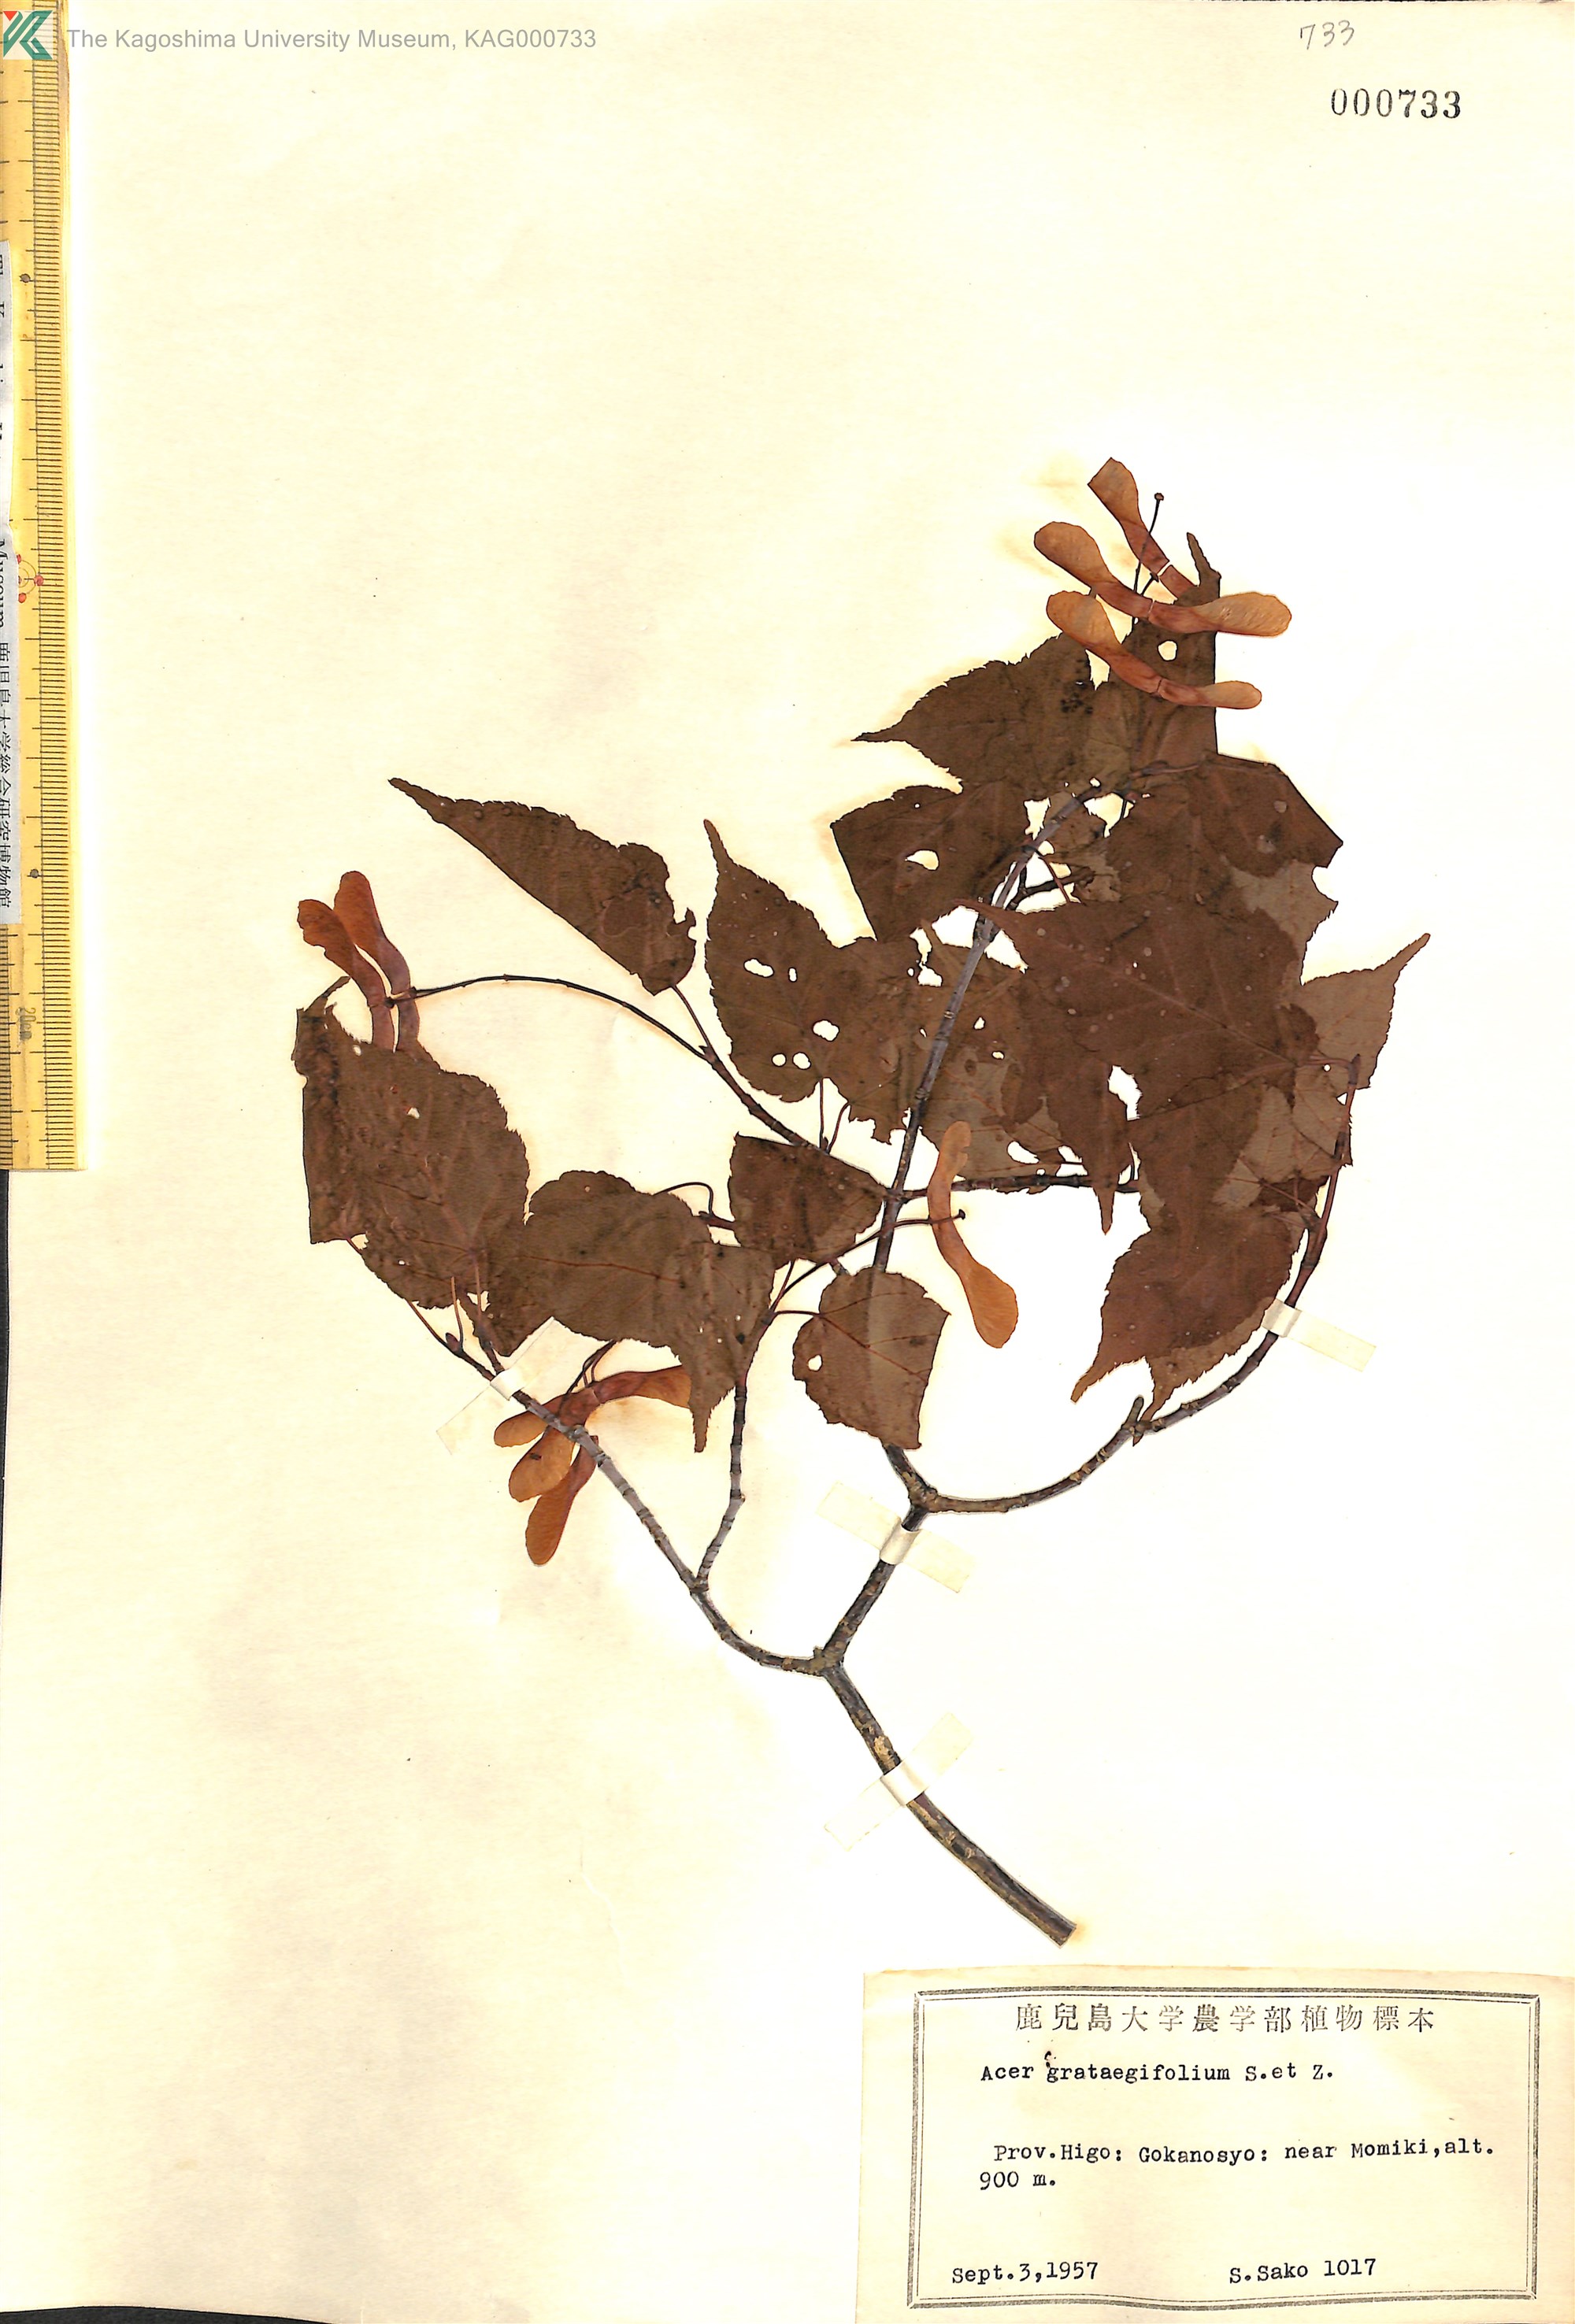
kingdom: Plantae
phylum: Tracheophyta
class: Magnoliopsida
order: Sapindales
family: Sapindaceae
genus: Acer
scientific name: Acer crataegifolium
